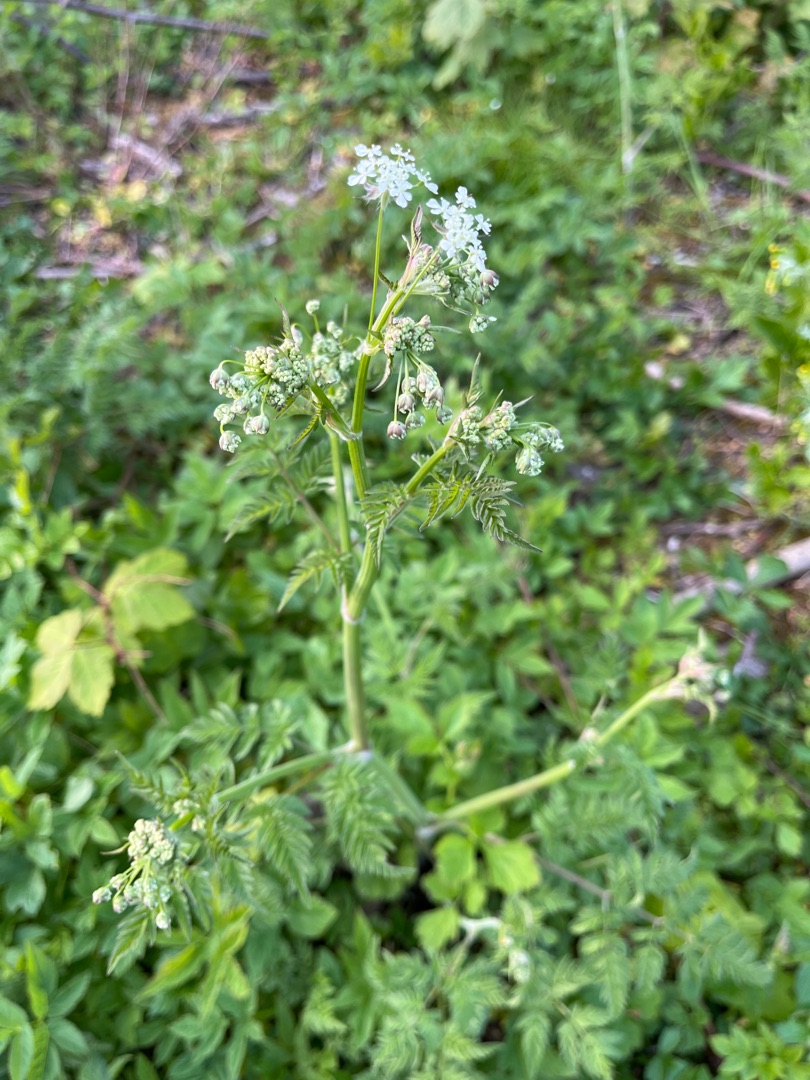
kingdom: Plantae
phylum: Tracheophyta
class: Magnoliopsida
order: Apiales
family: Apiaceae
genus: Anthriscus
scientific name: Anthriscus sylvestris
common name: Vild kørvel
